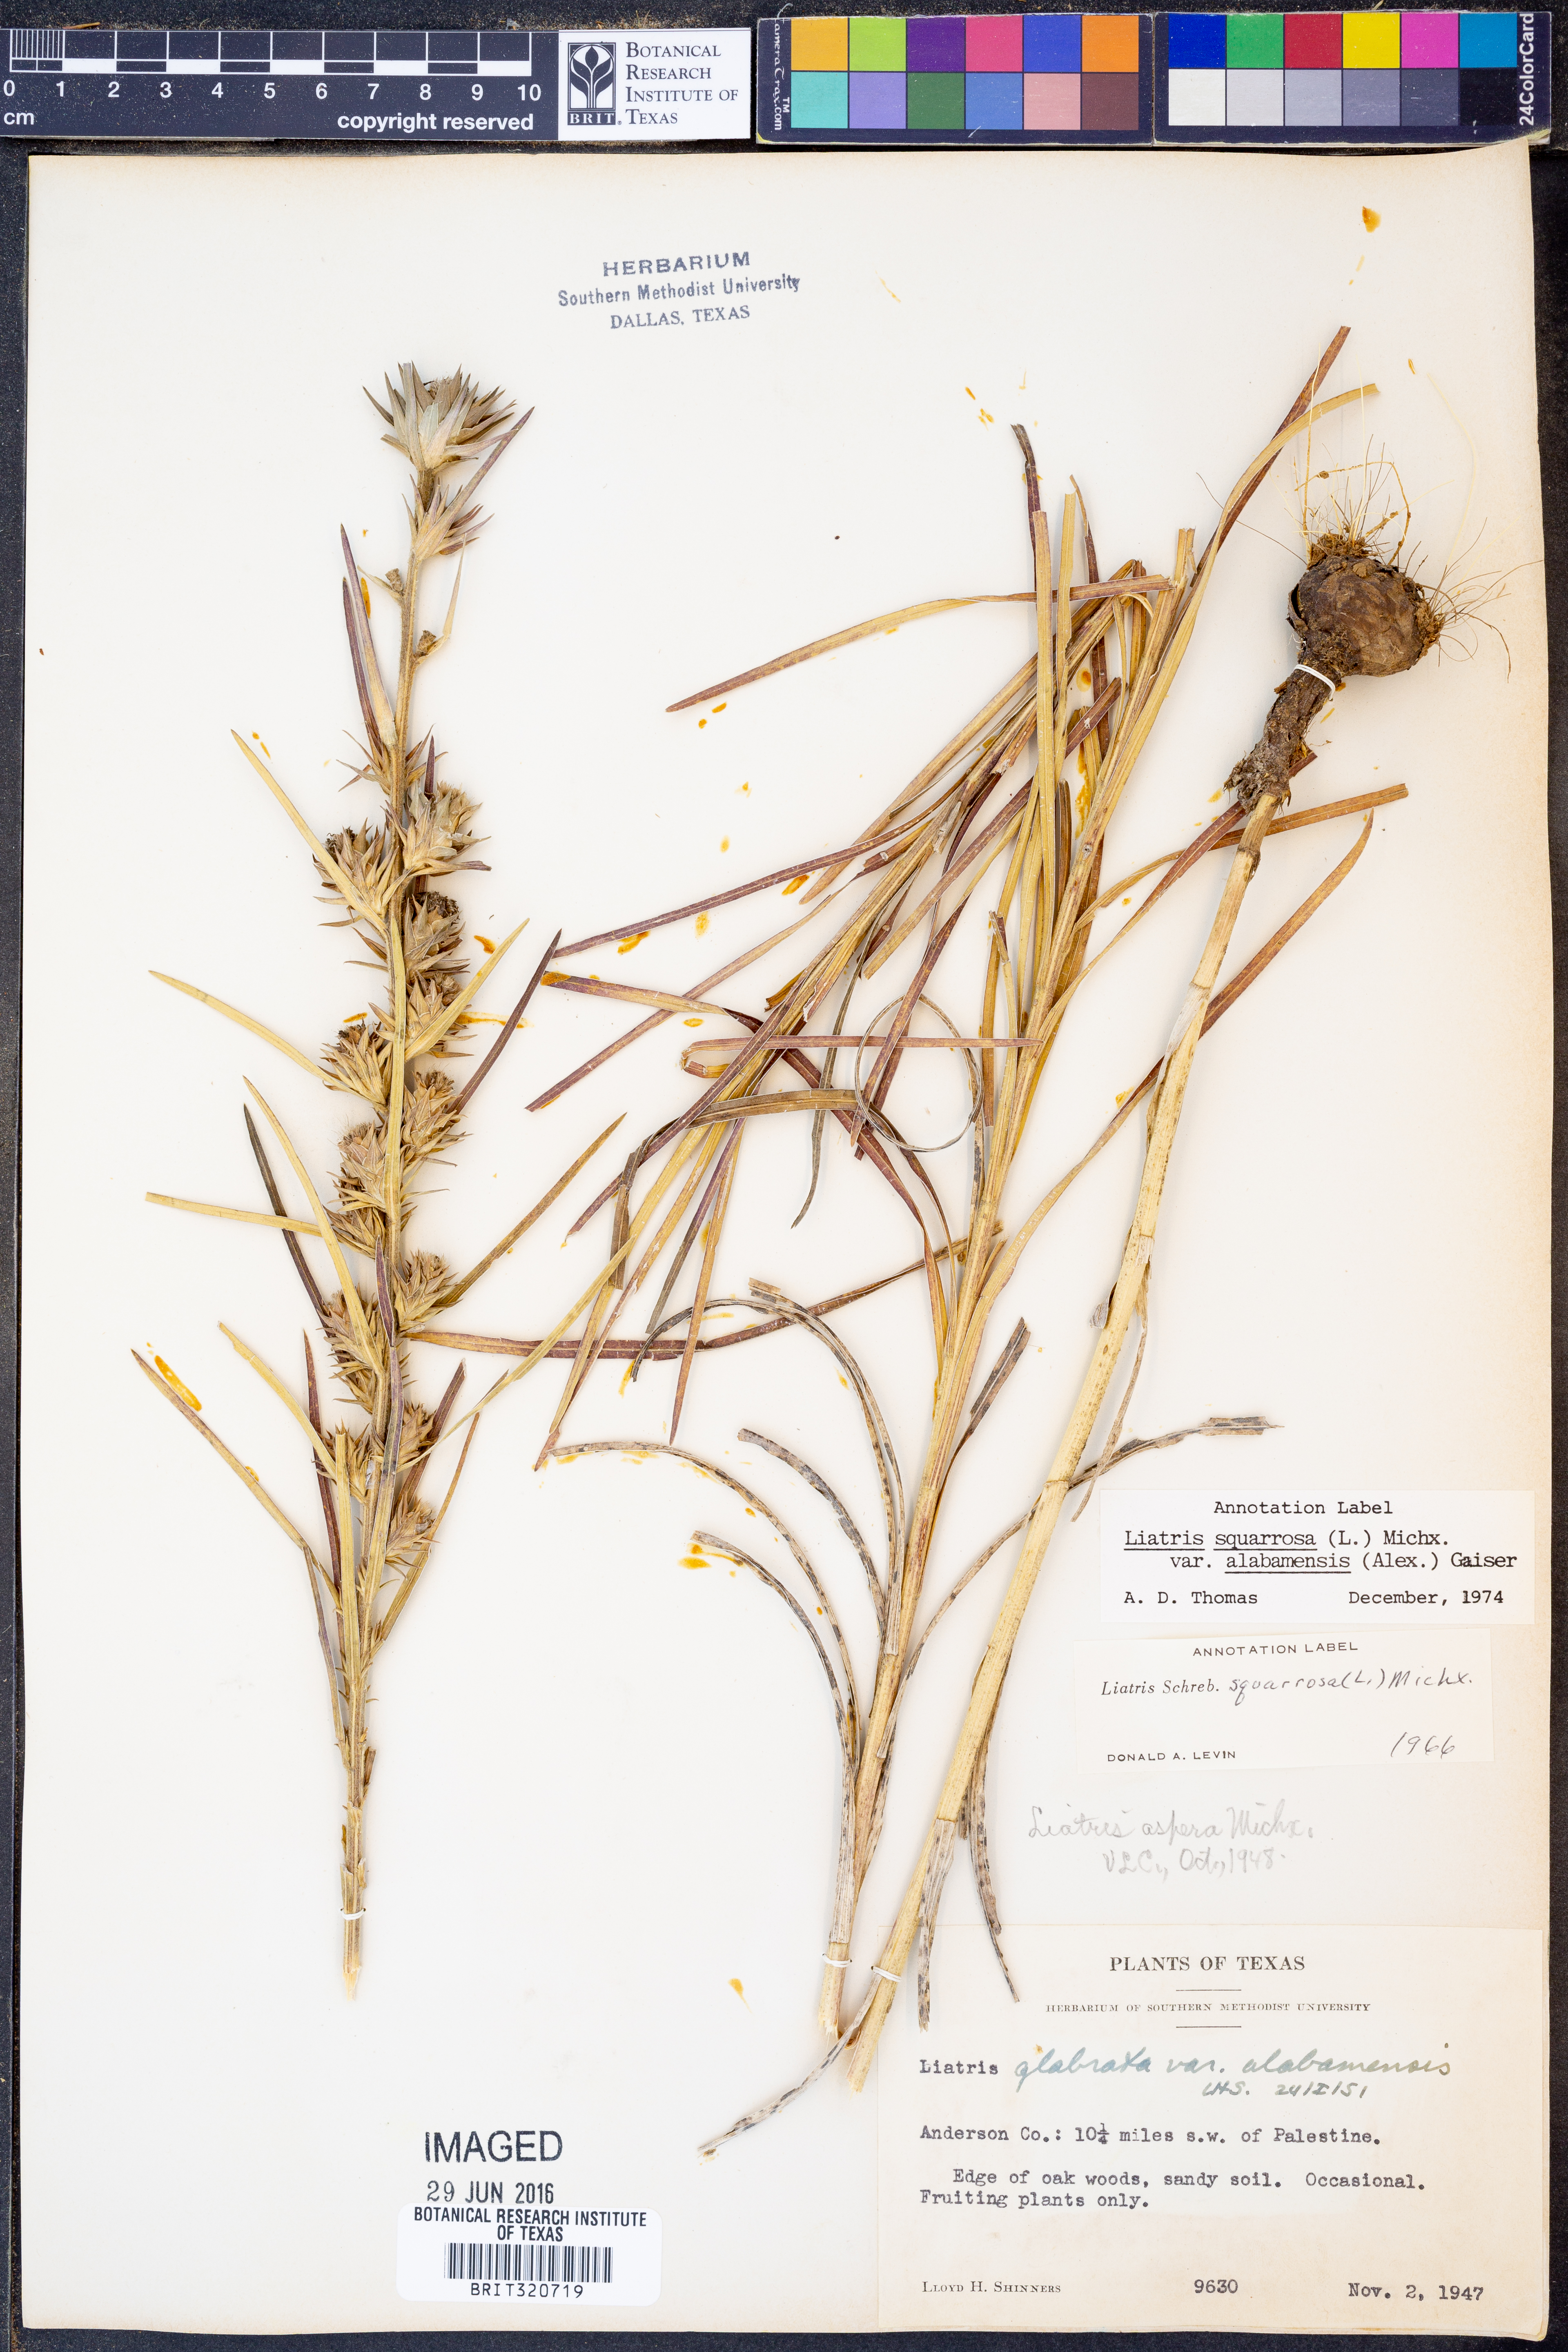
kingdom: Plantae
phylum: Tracheophyta
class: Magnoliopsida
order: Asterales
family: Asteraceae
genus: Liatris
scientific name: Liatris squarrosa
